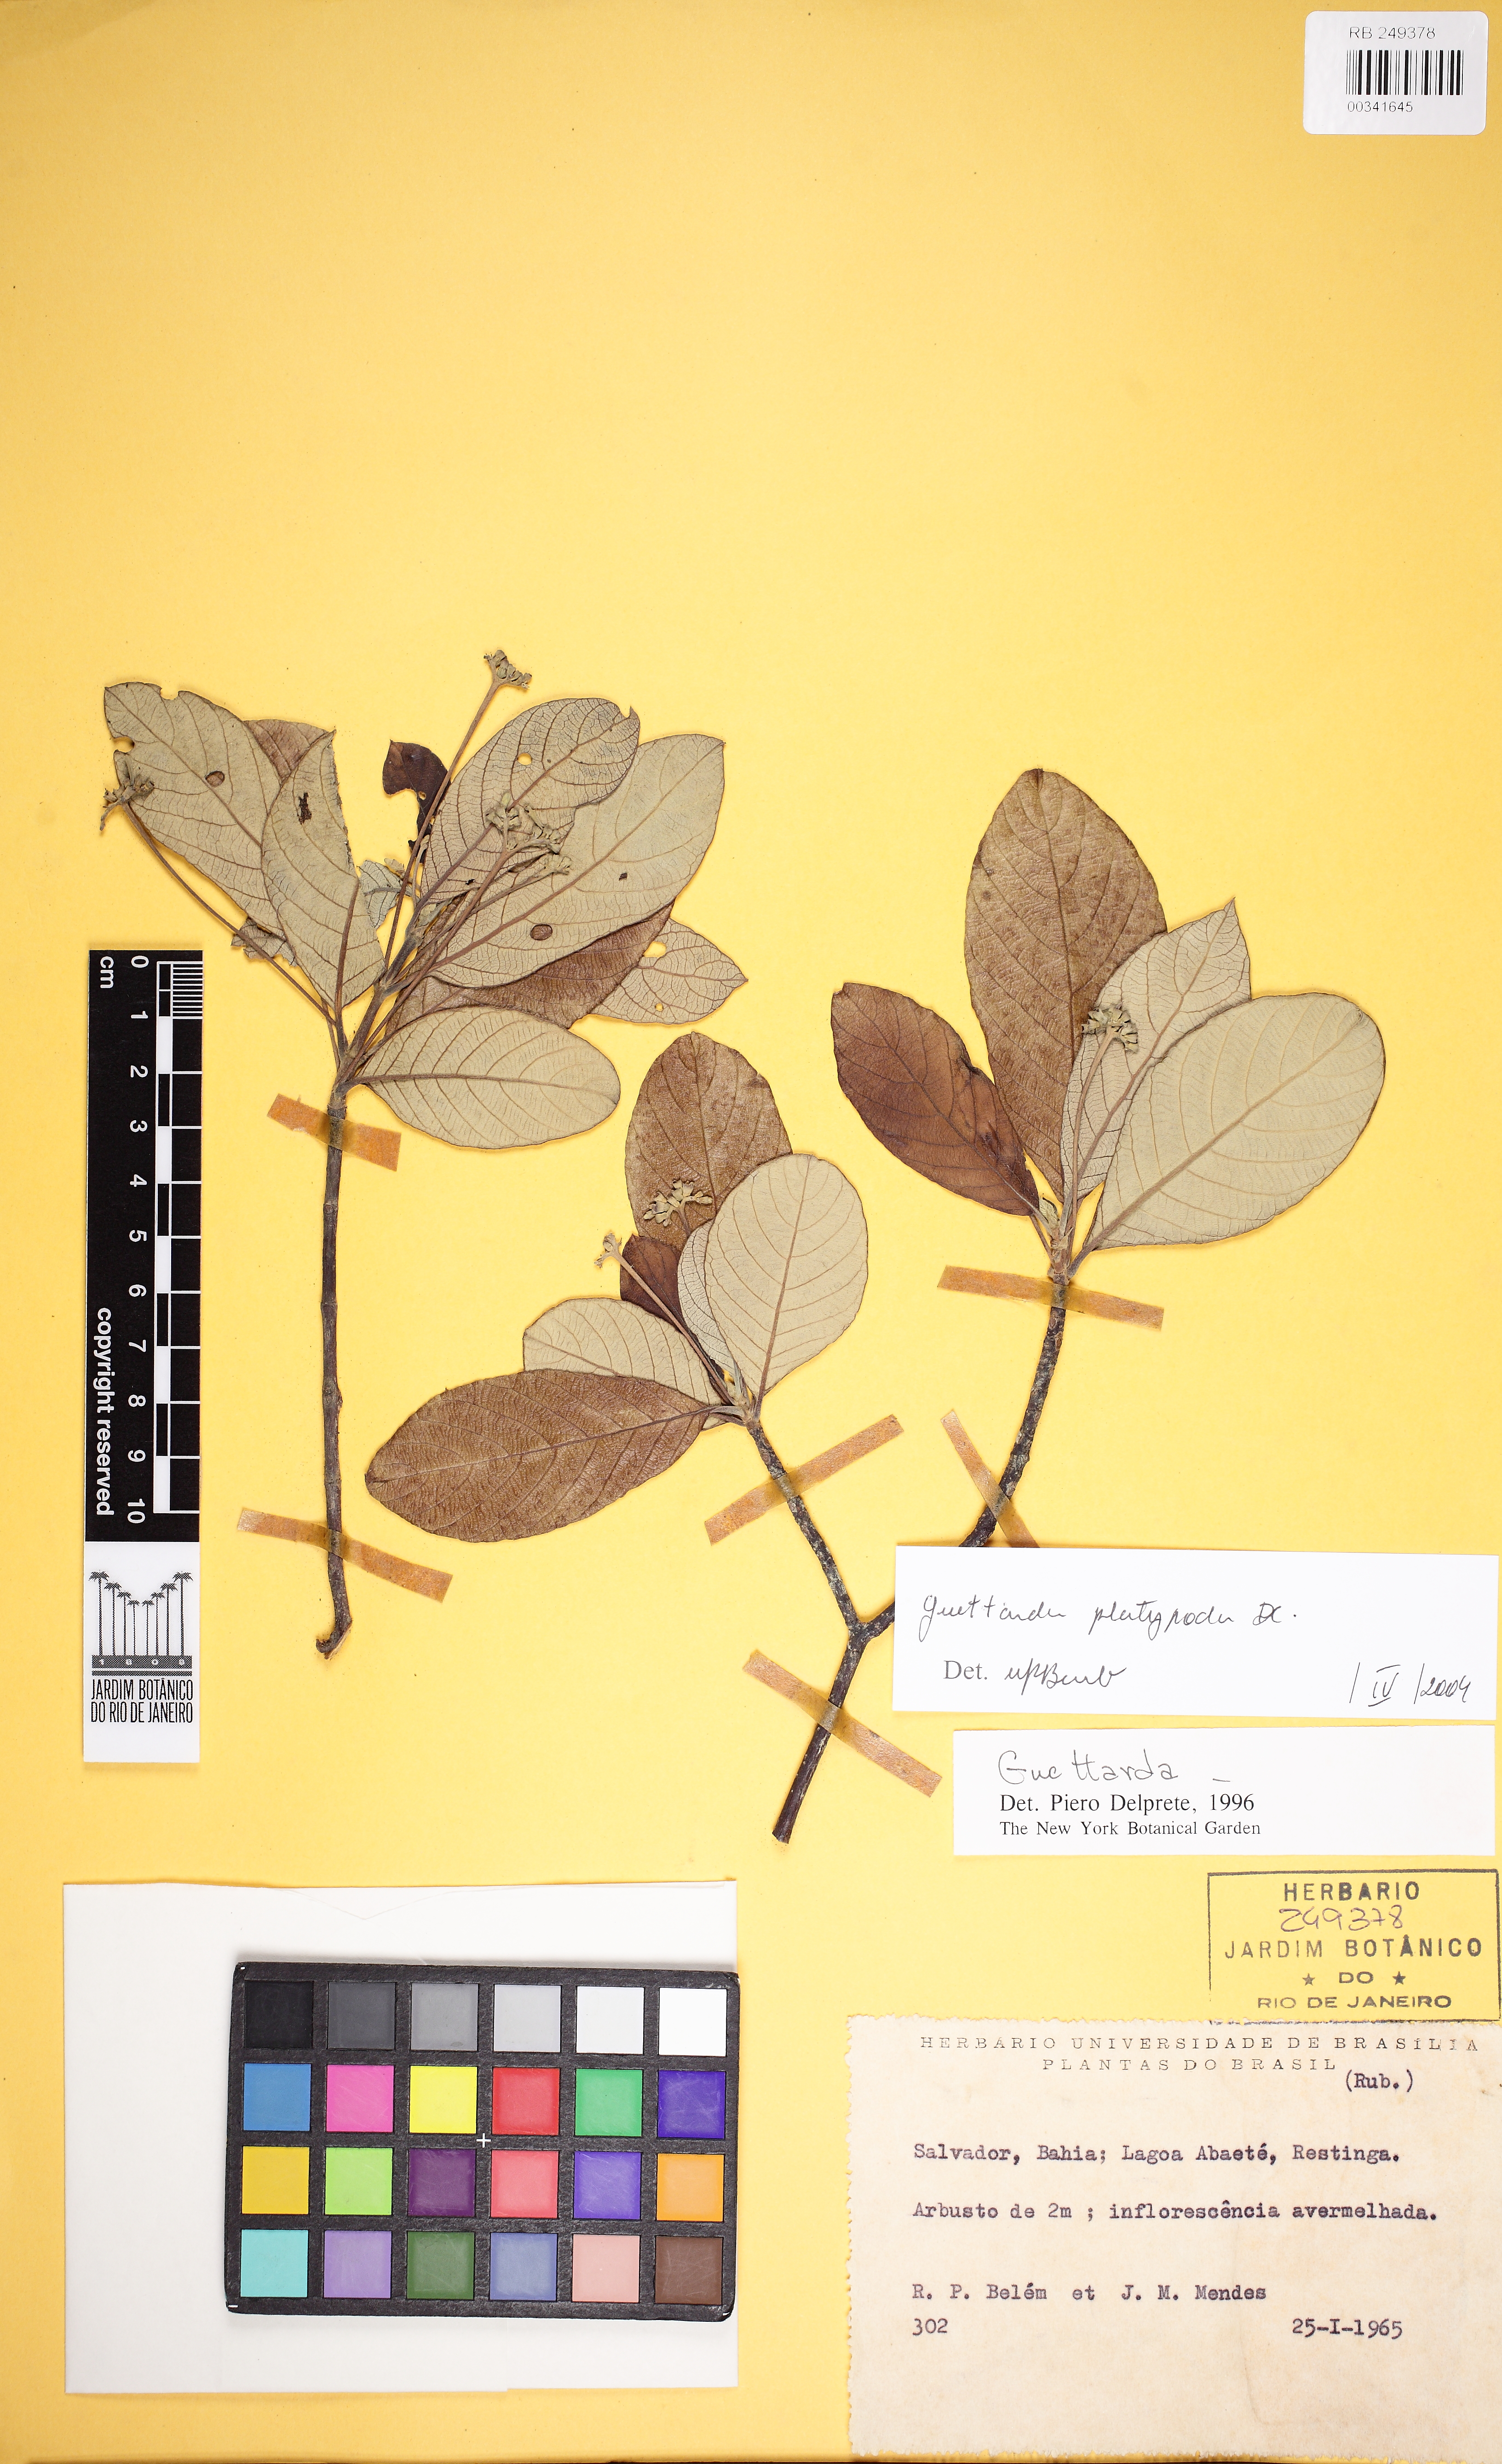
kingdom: Plantae
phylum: Tracheophyta
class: Magnoliopsida
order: Gentianales
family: Rubiaceae
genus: Guettarda
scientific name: Guettarda platypoda
